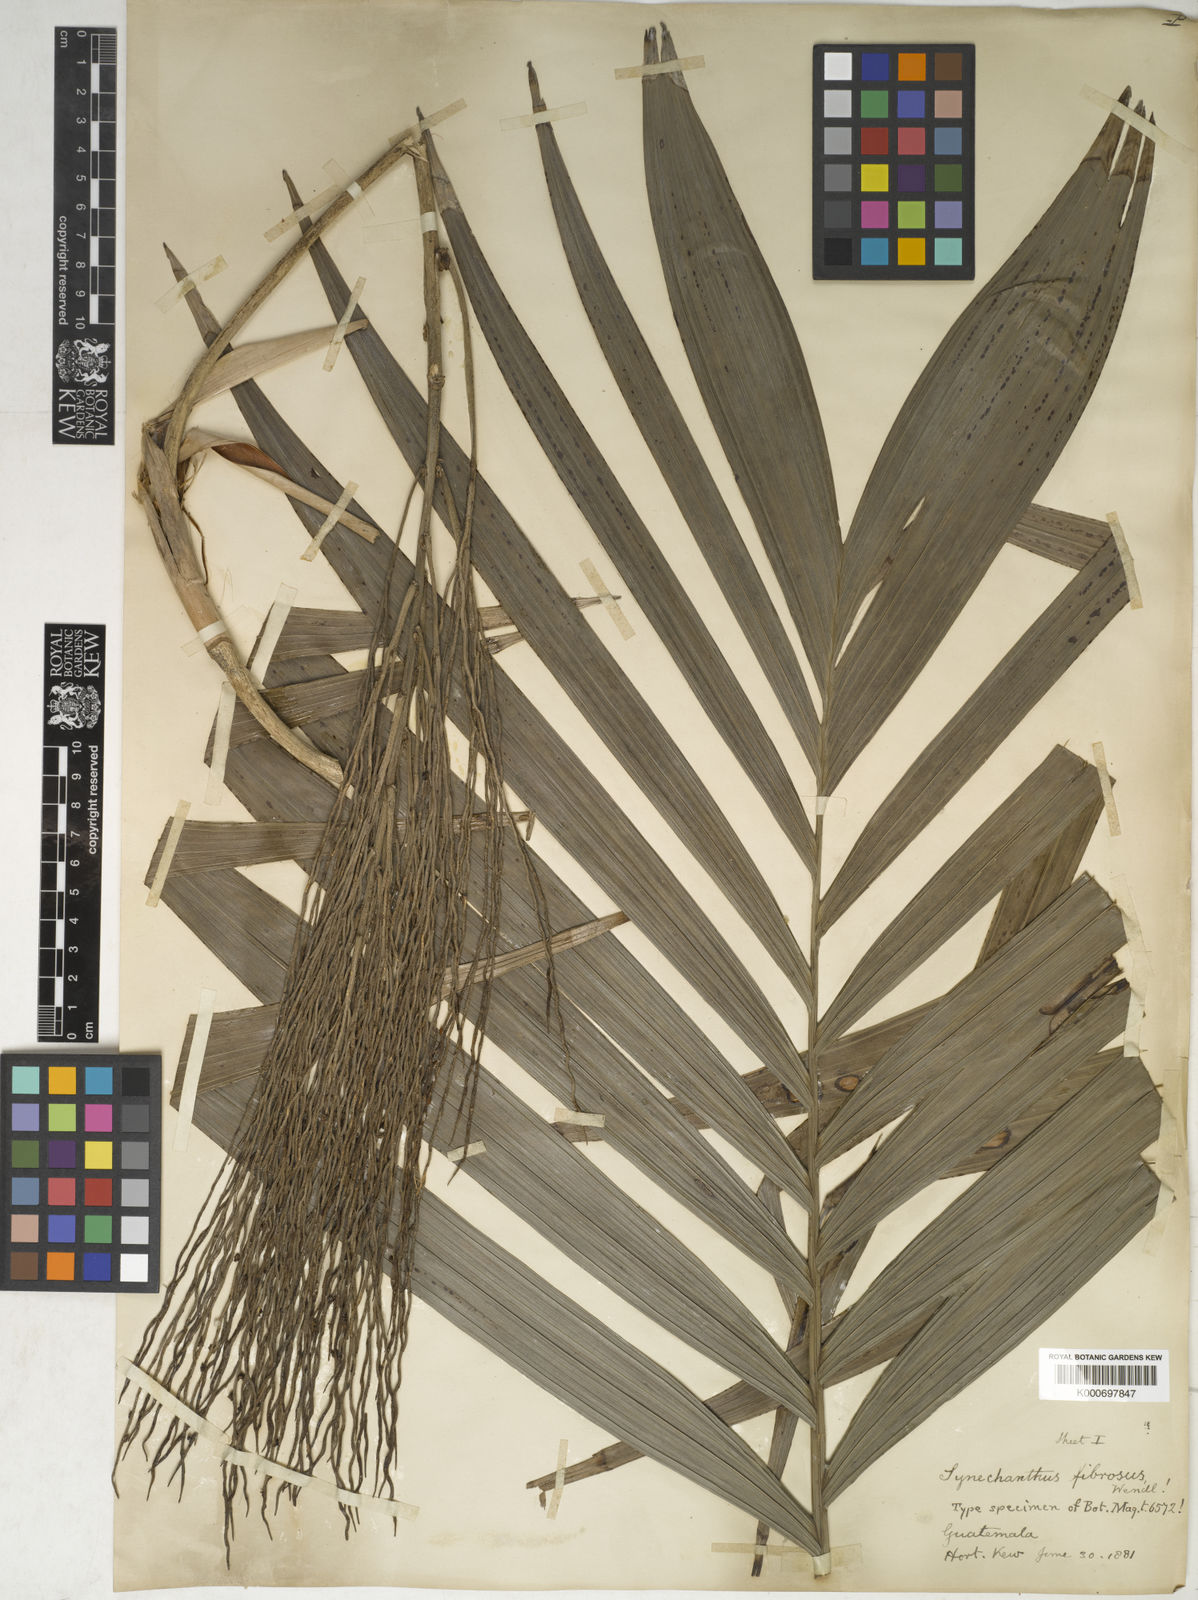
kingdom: Plantae
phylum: Tracheophyta
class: Liliopsida
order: Arecales
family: Arecaceae
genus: Synechanthus
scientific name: Synechanthus fibrosus
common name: Jellybean palm
